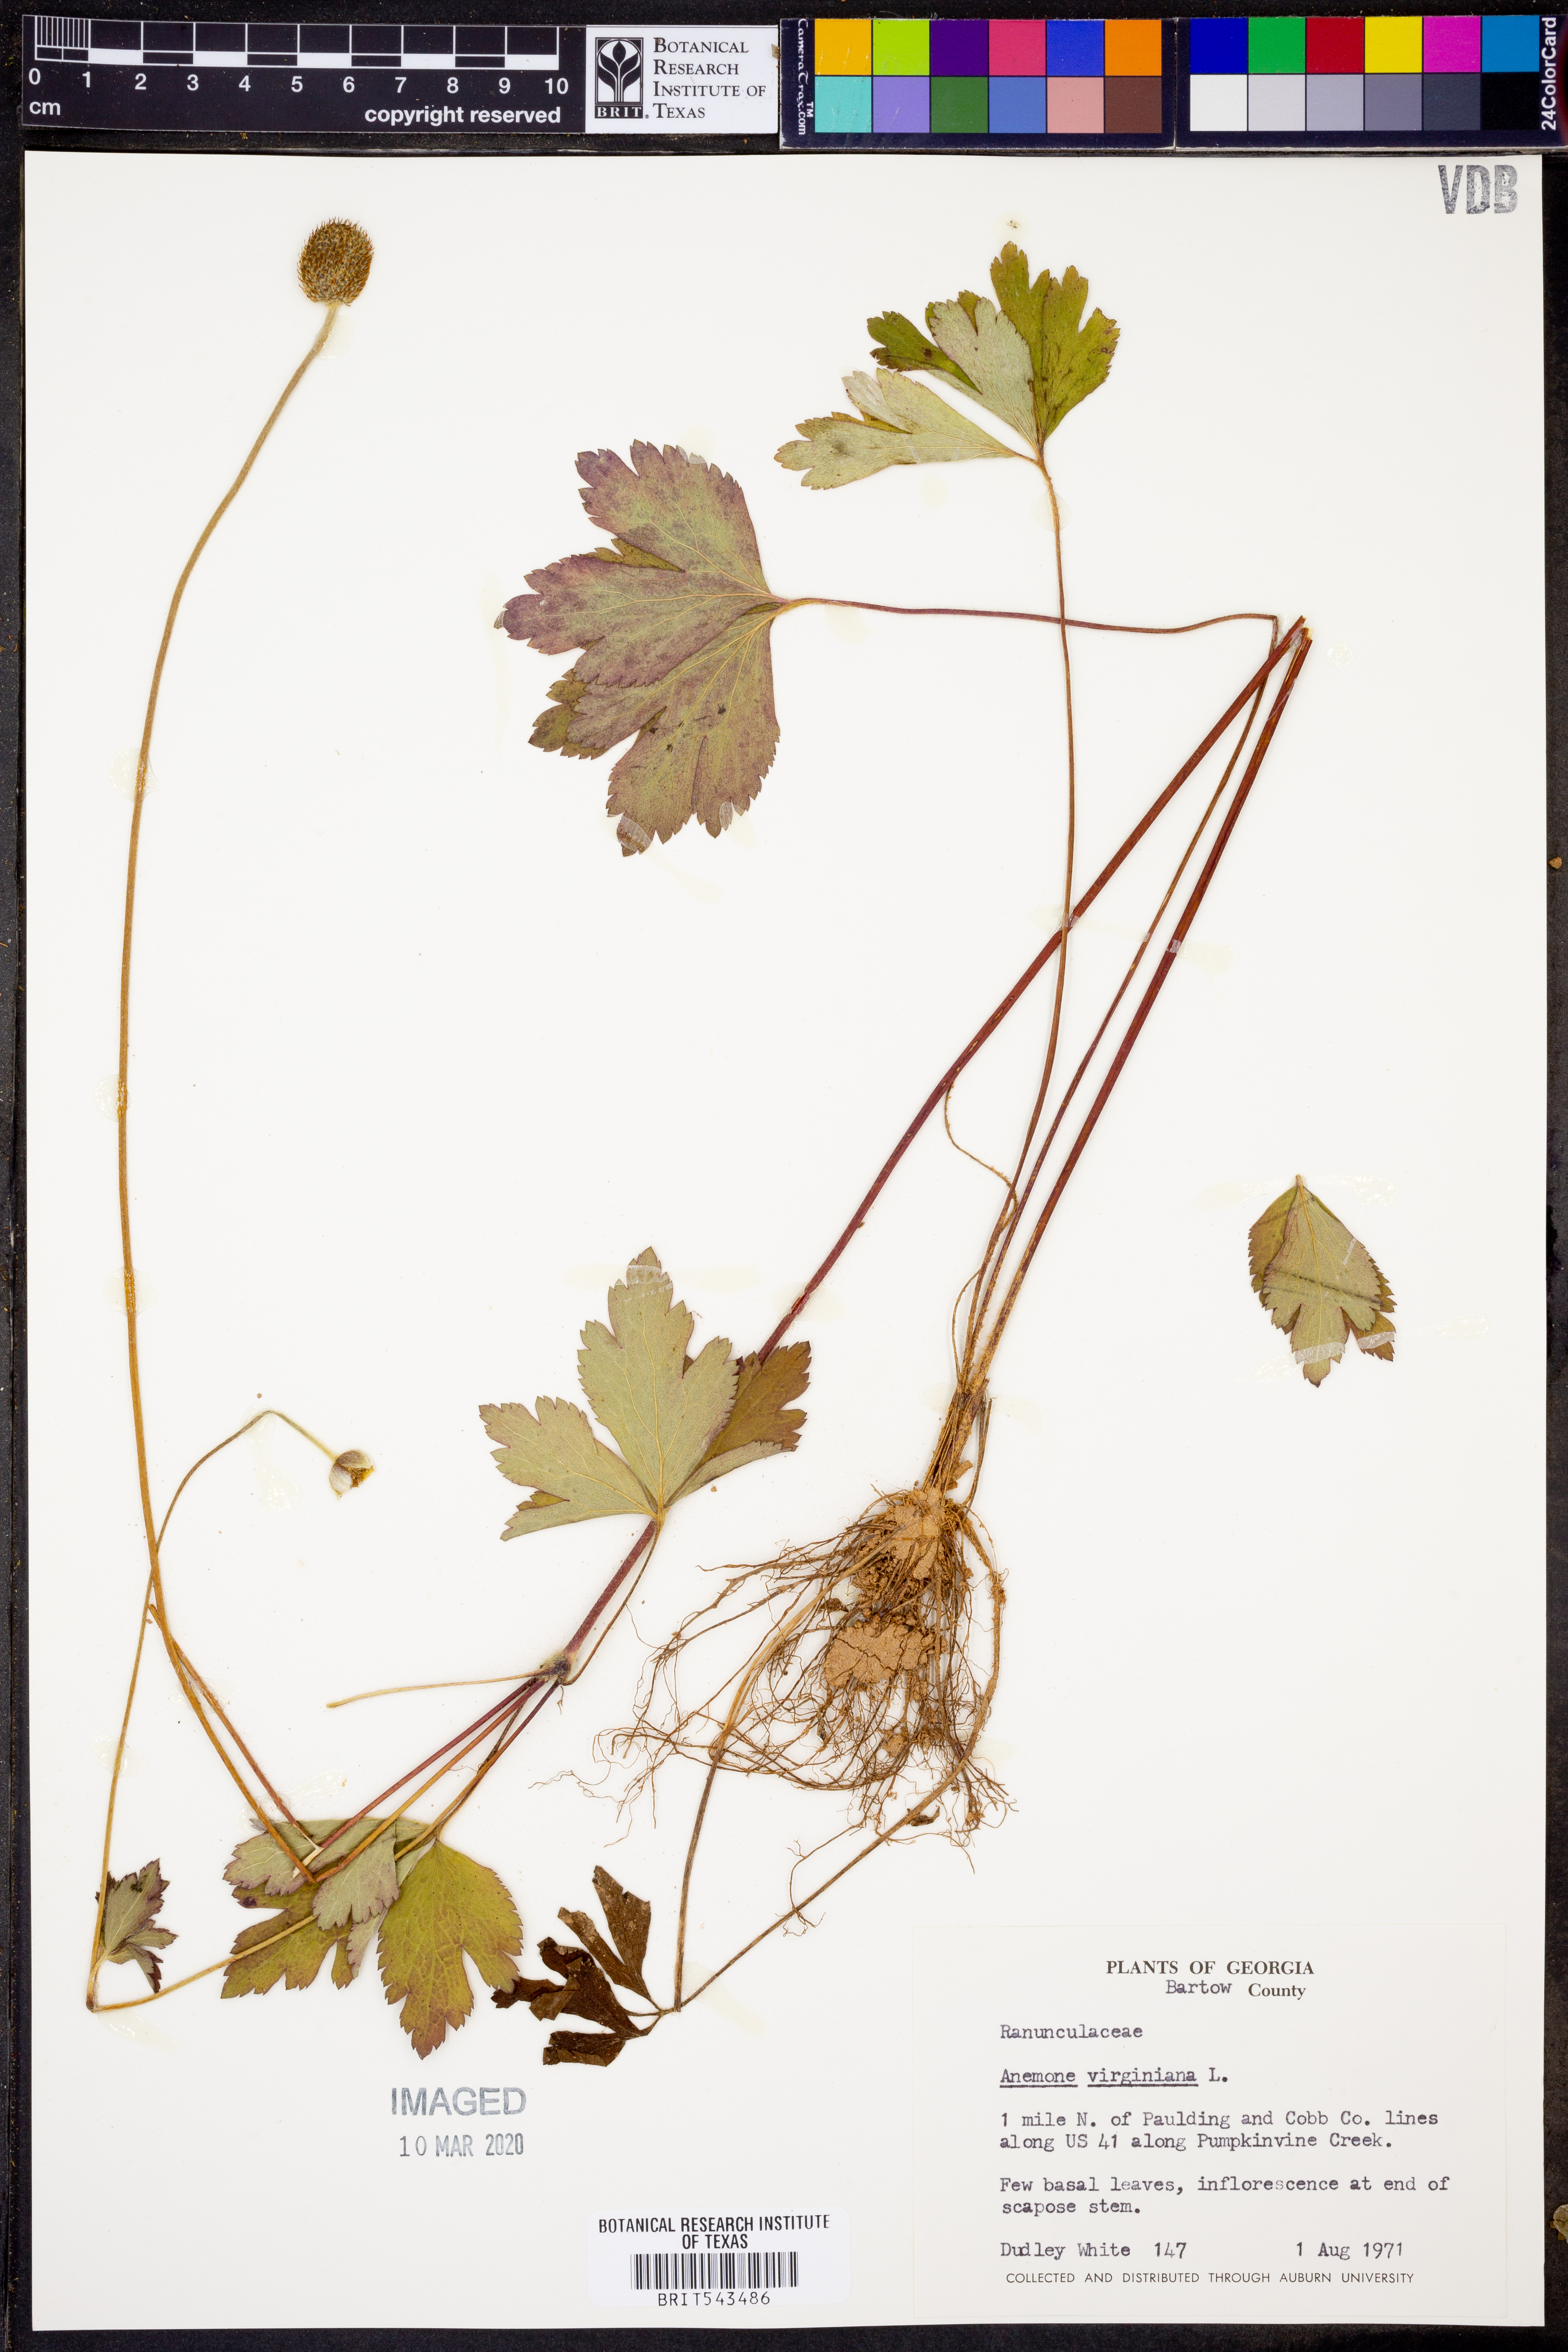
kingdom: Plantae
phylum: Tracheophyta
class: Magnoliopsida
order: Ranunculales
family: Ranunculaceae
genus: Anemone
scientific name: Anemone virginiana
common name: Tall anemone
